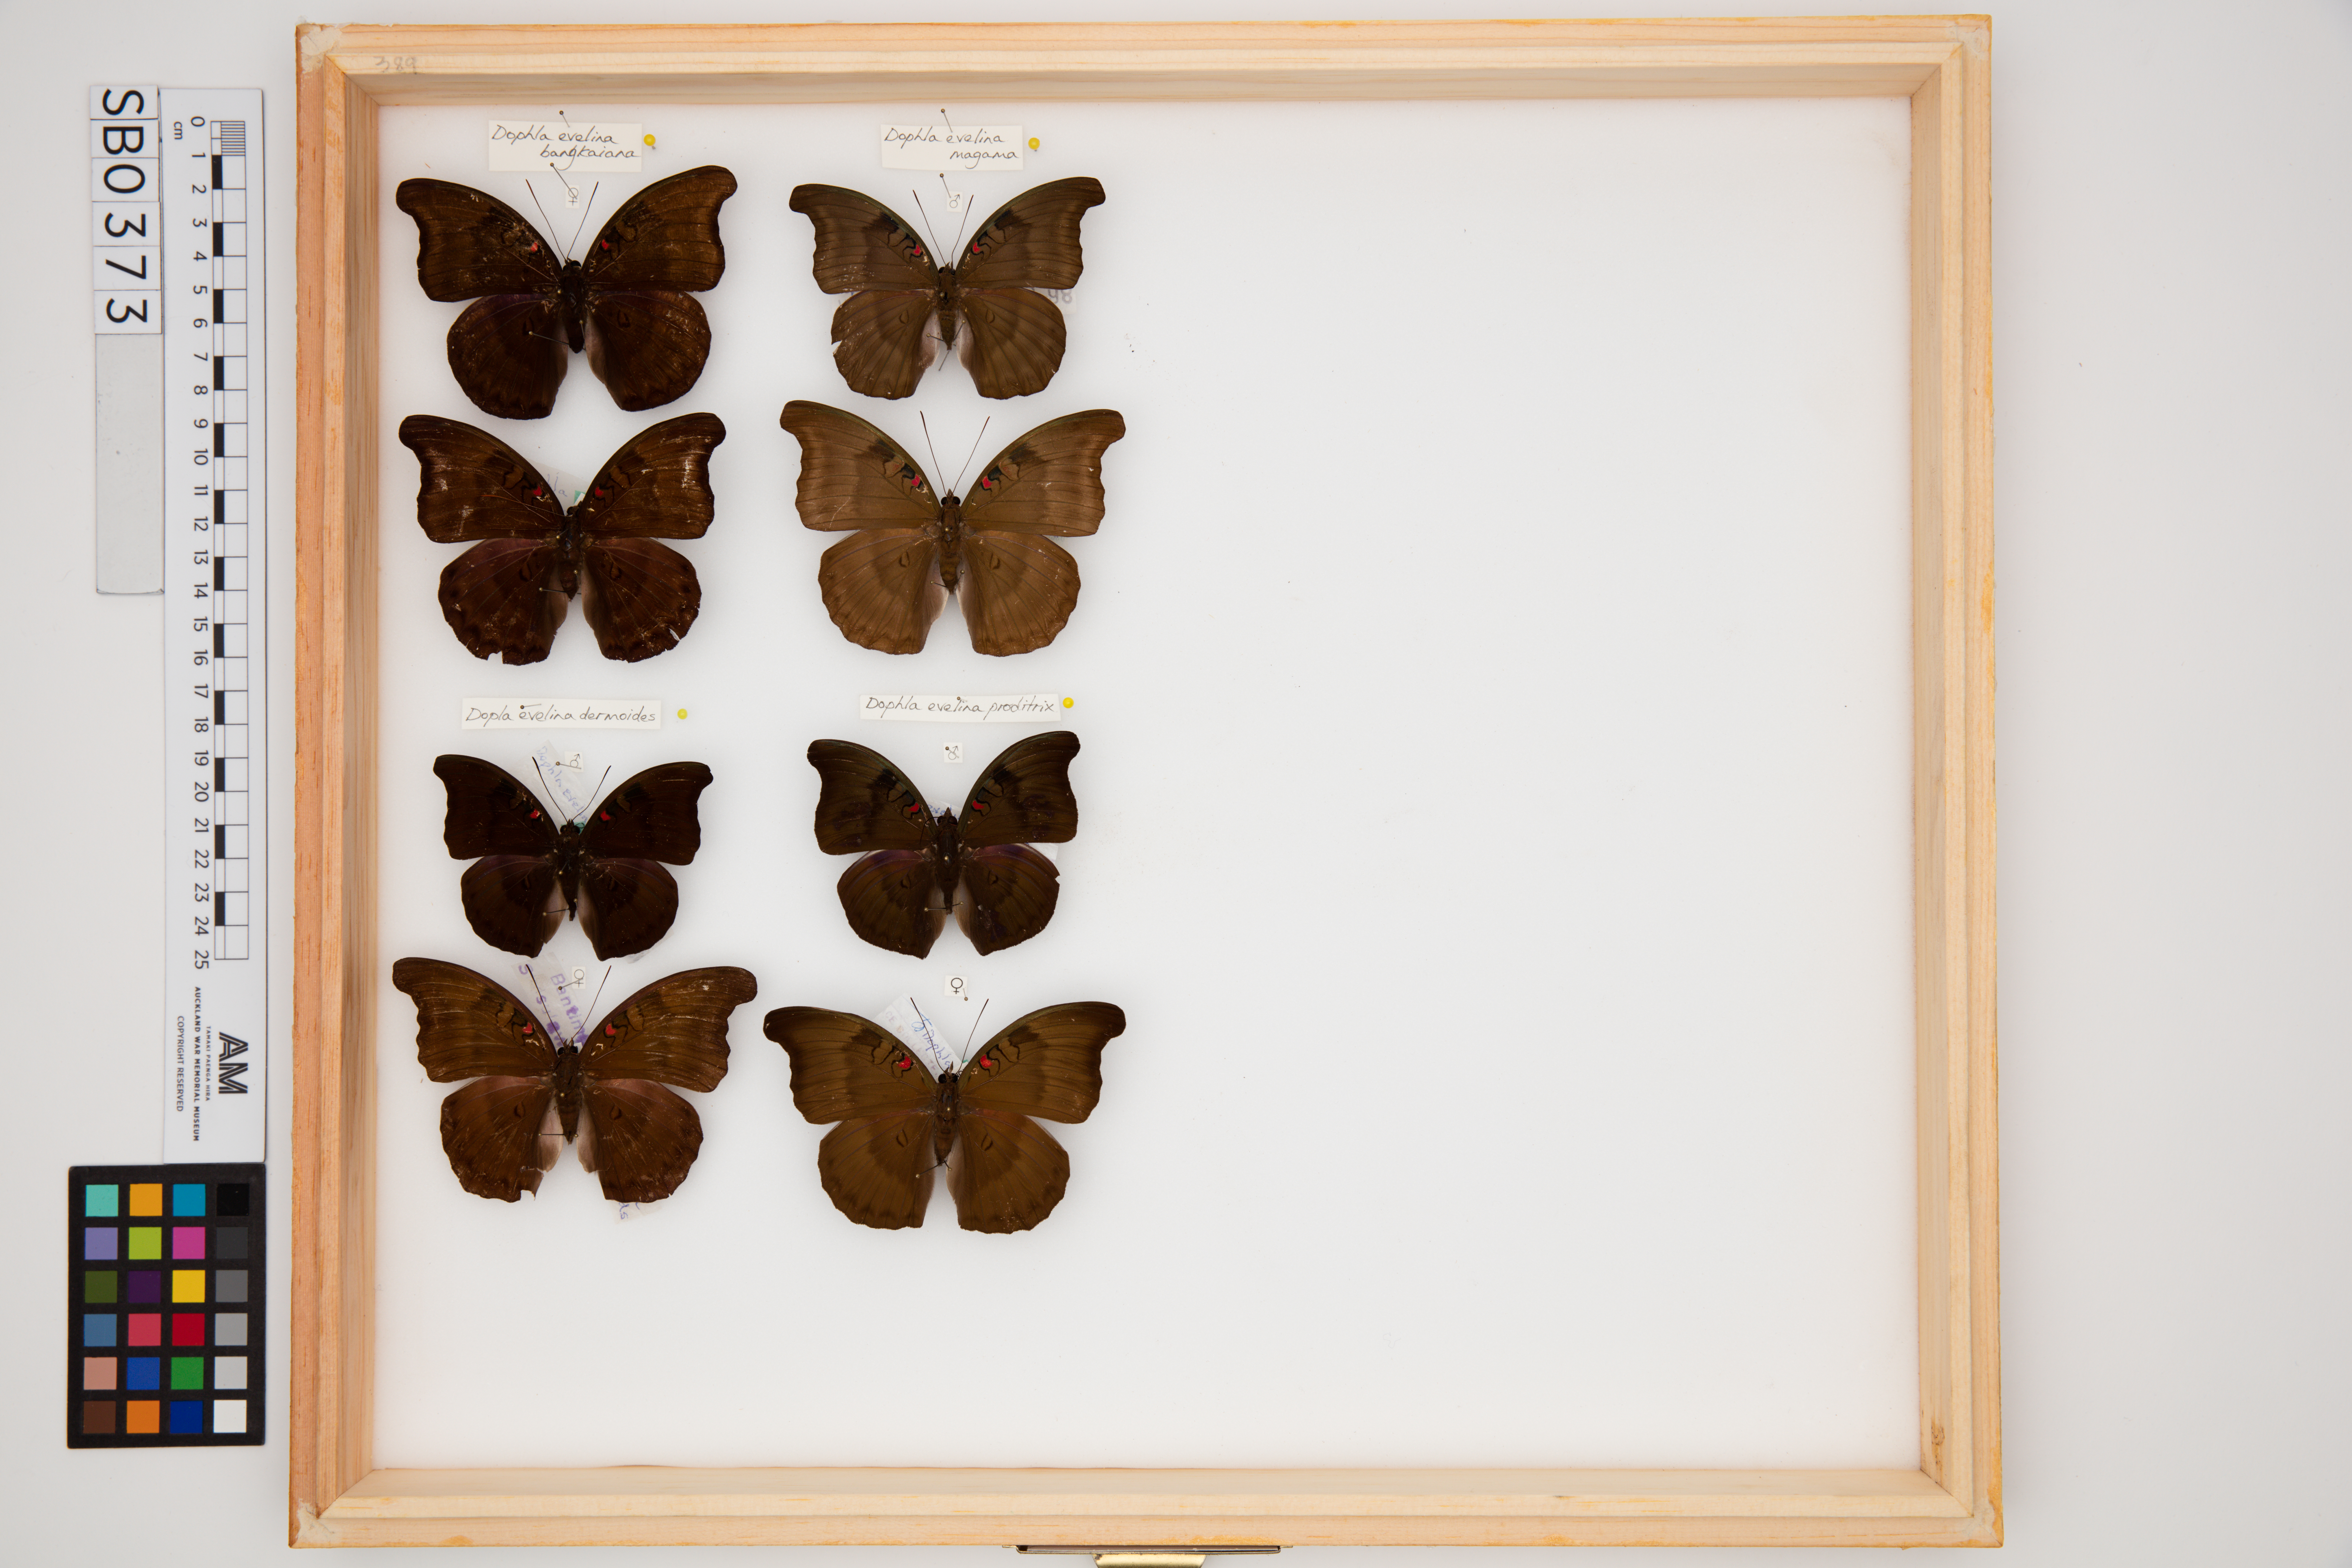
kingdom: Animalia
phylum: Arthropoda
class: Insecta
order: Lepidoptera
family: Nymphalidae
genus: Euthalia
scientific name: Euthalia Dophla evelina
